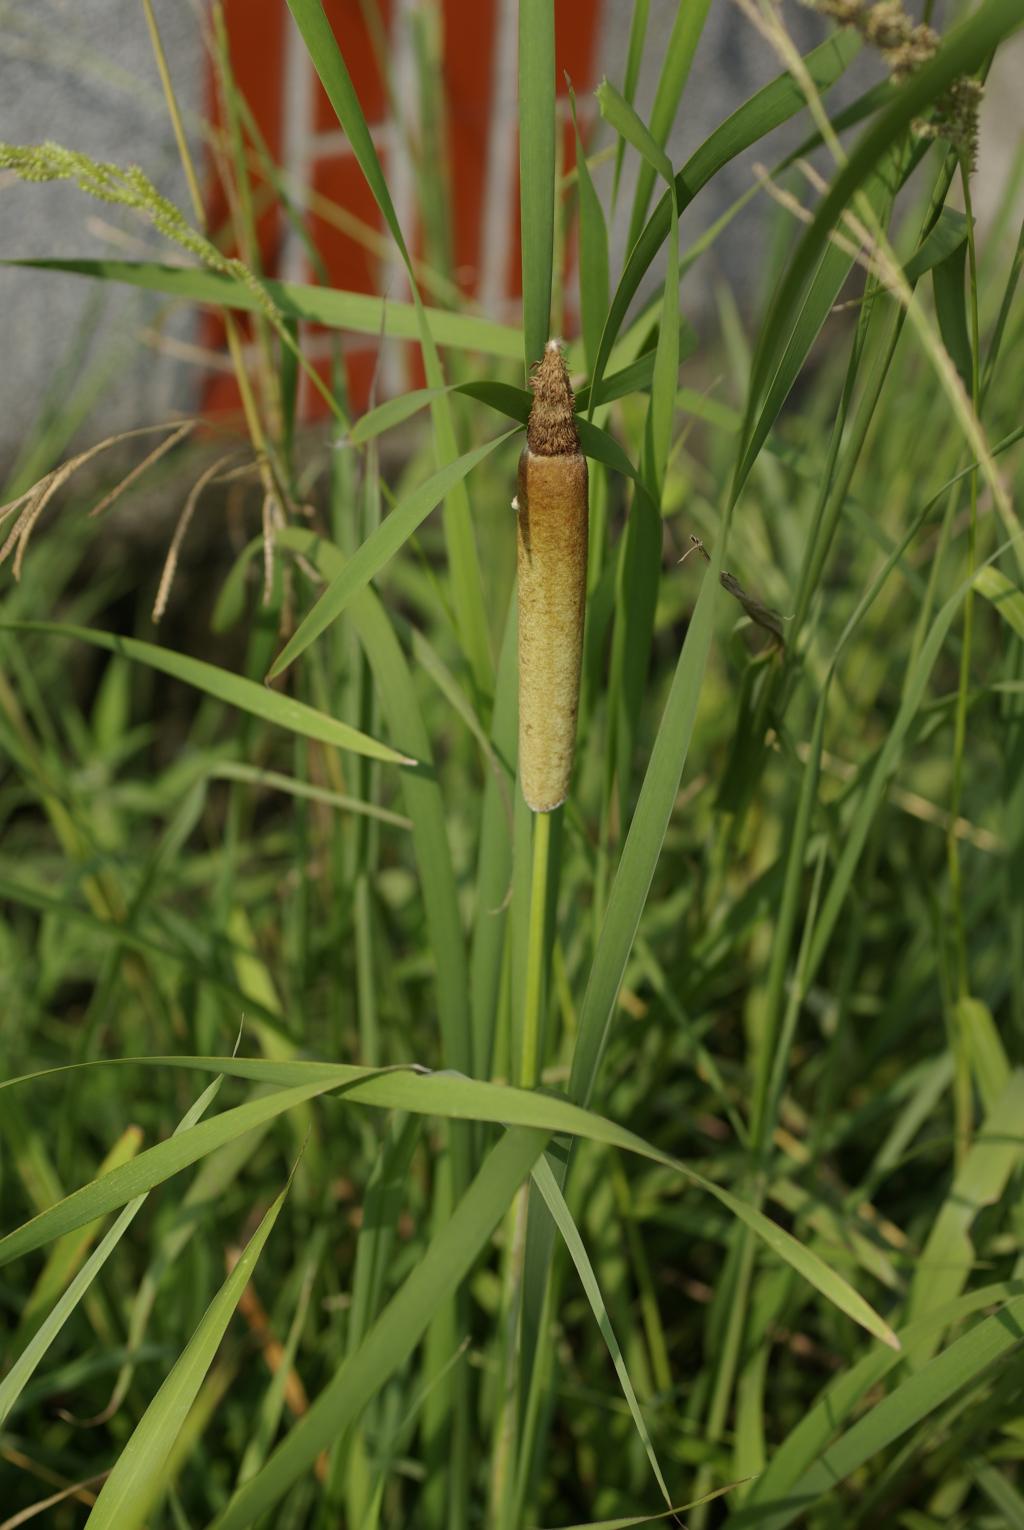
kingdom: Plantae
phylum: Tracheophyta
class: Liliopsida
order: Poales
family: Typhaceae
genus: Typha
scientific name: Typha orientalis
